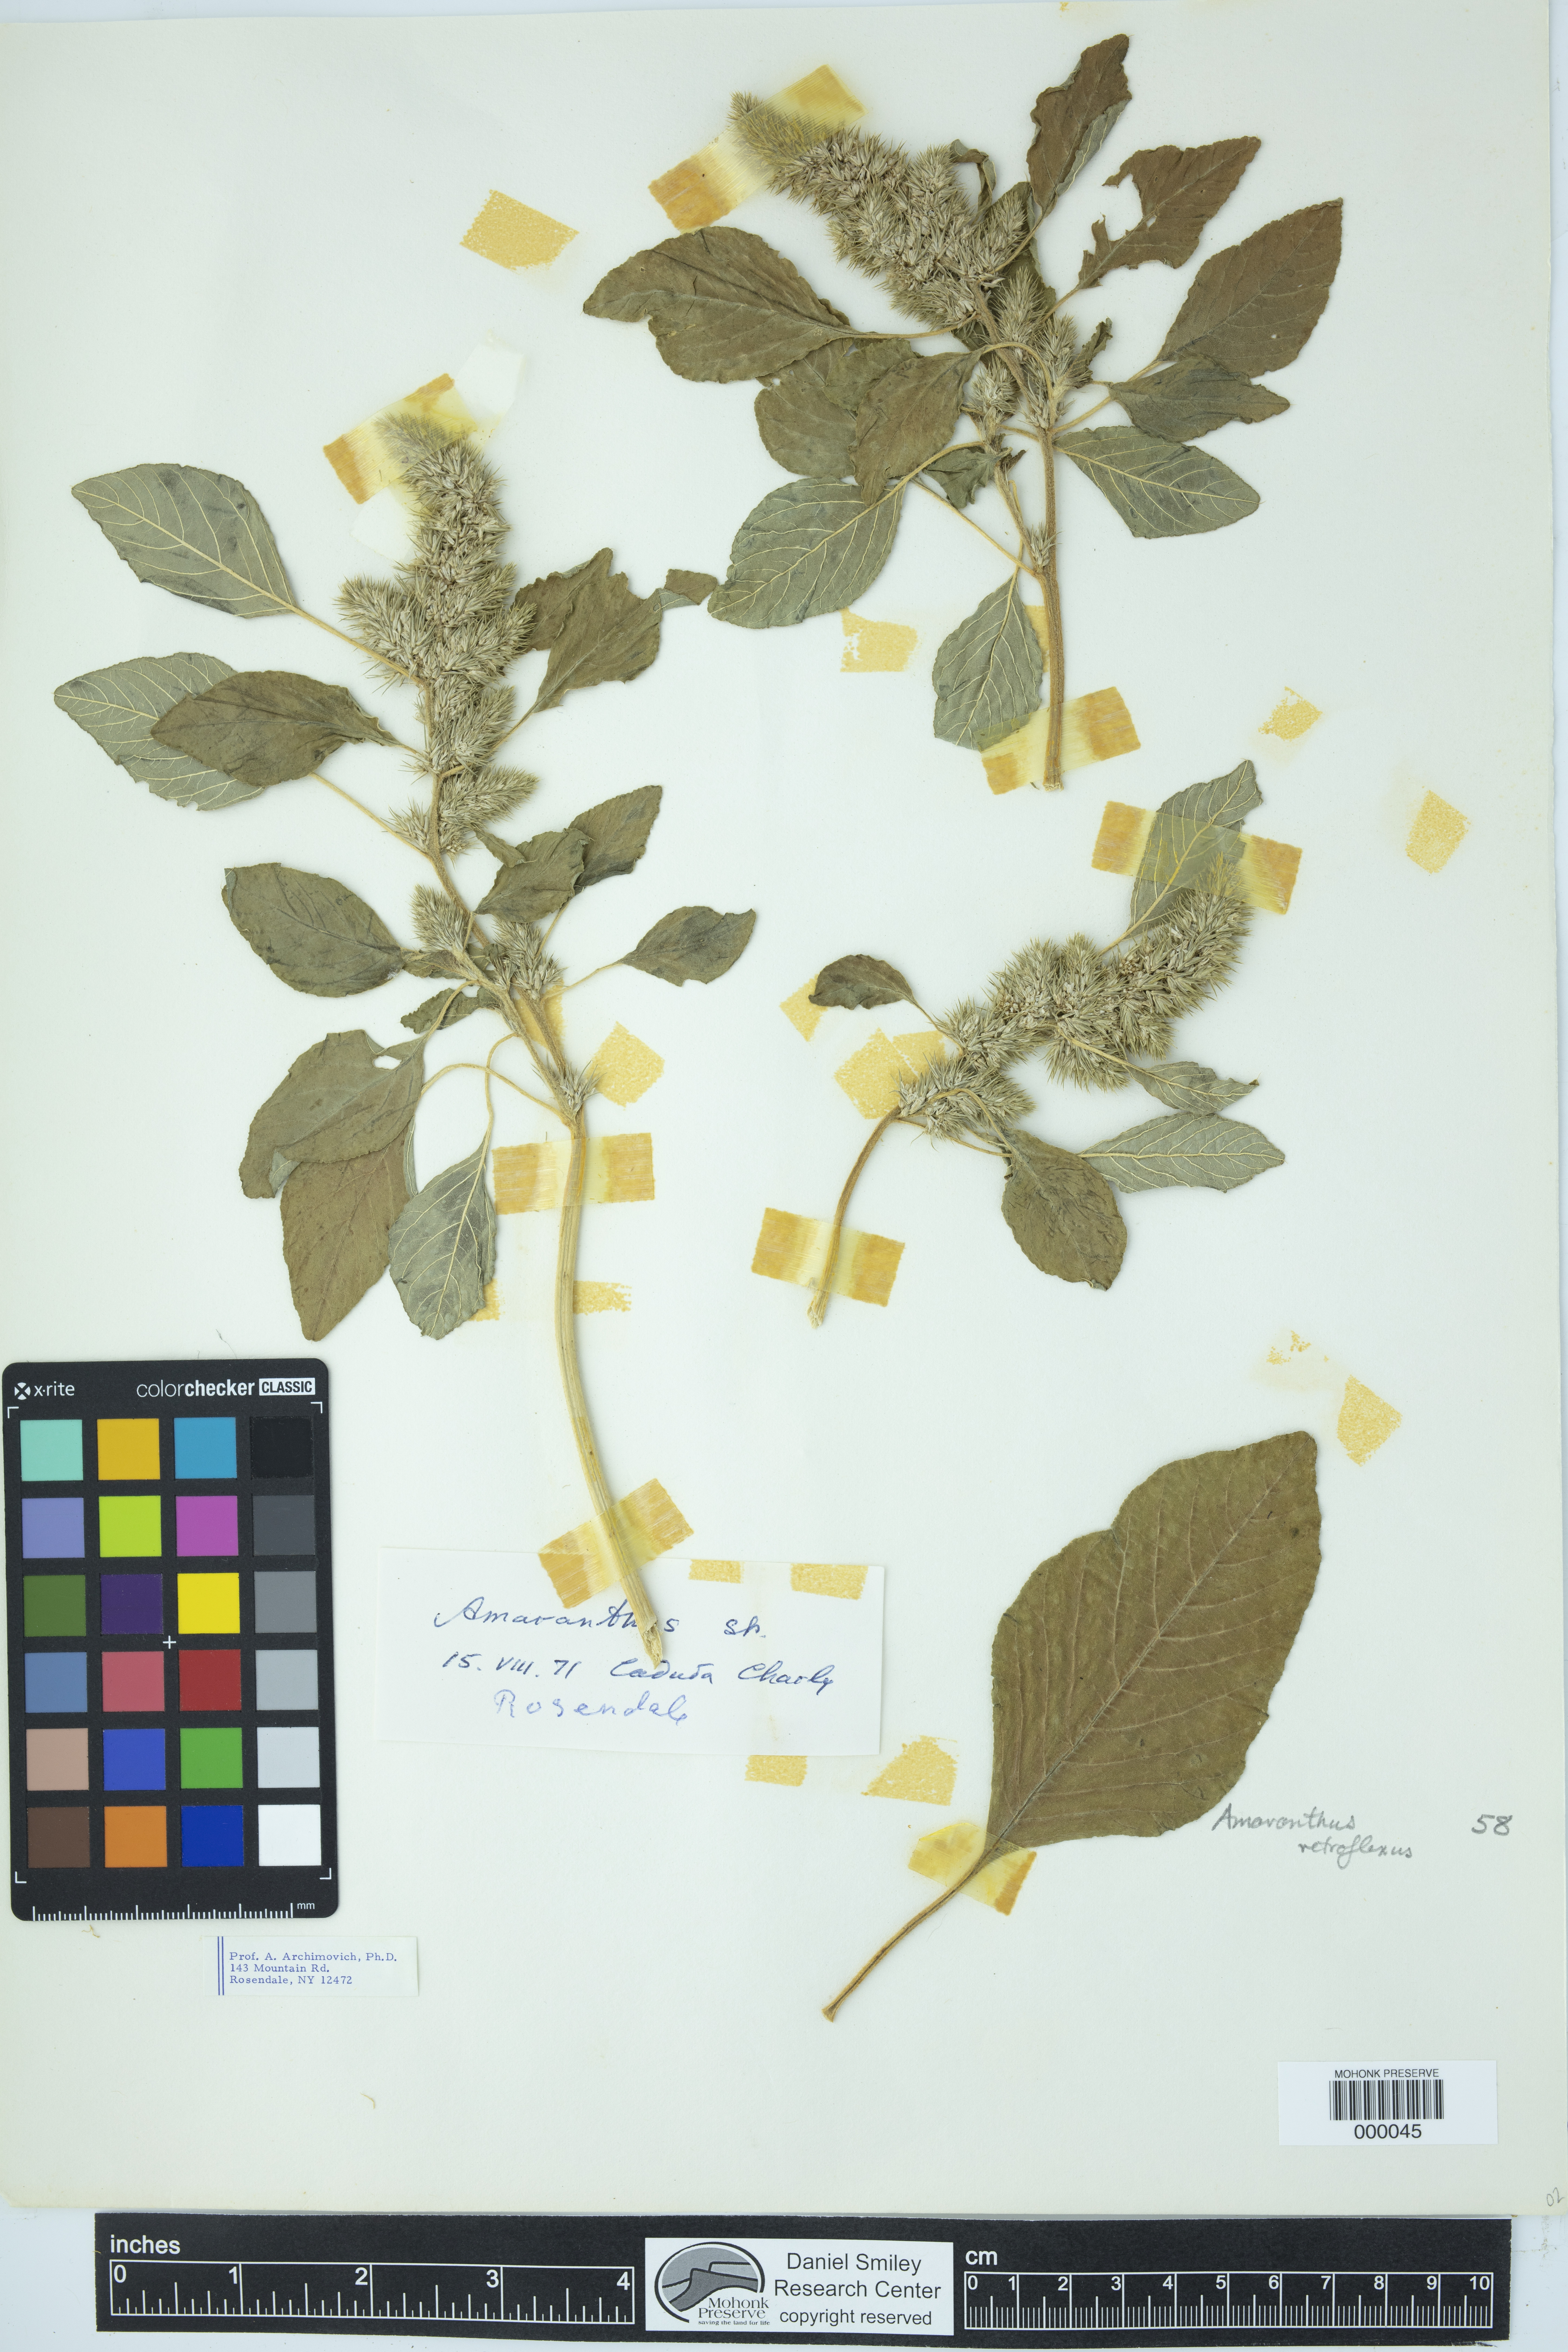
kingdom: Plantae
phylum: Tracheophyta
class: Magnoliopsida
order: Caryophyllales
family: Amaranthaceae
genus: Amaranthus
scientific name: Amaranthus retroflexus
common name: Redroot amaranth
